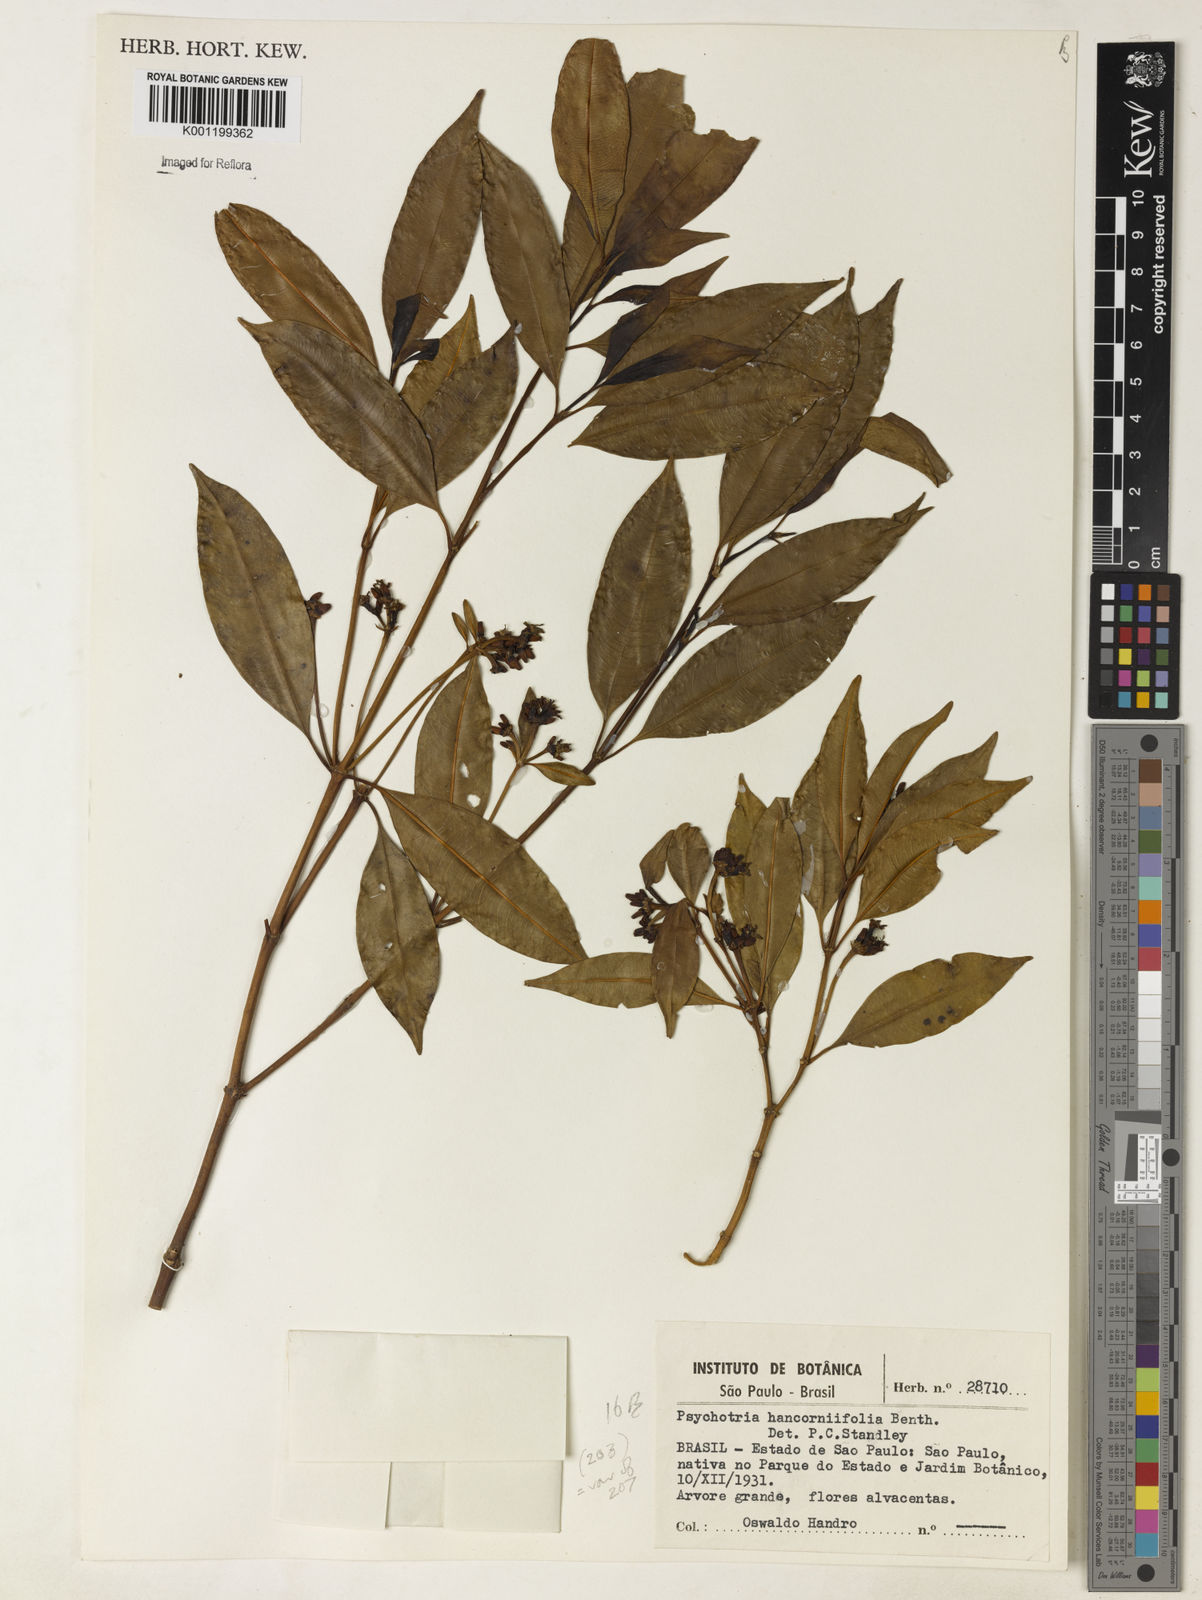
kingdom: Plantae
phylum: Tracheophyta
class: Magnoliopsida
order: Gentianales
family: Rubiaceae
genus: Palicourea
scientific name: Palicourea sessilis
